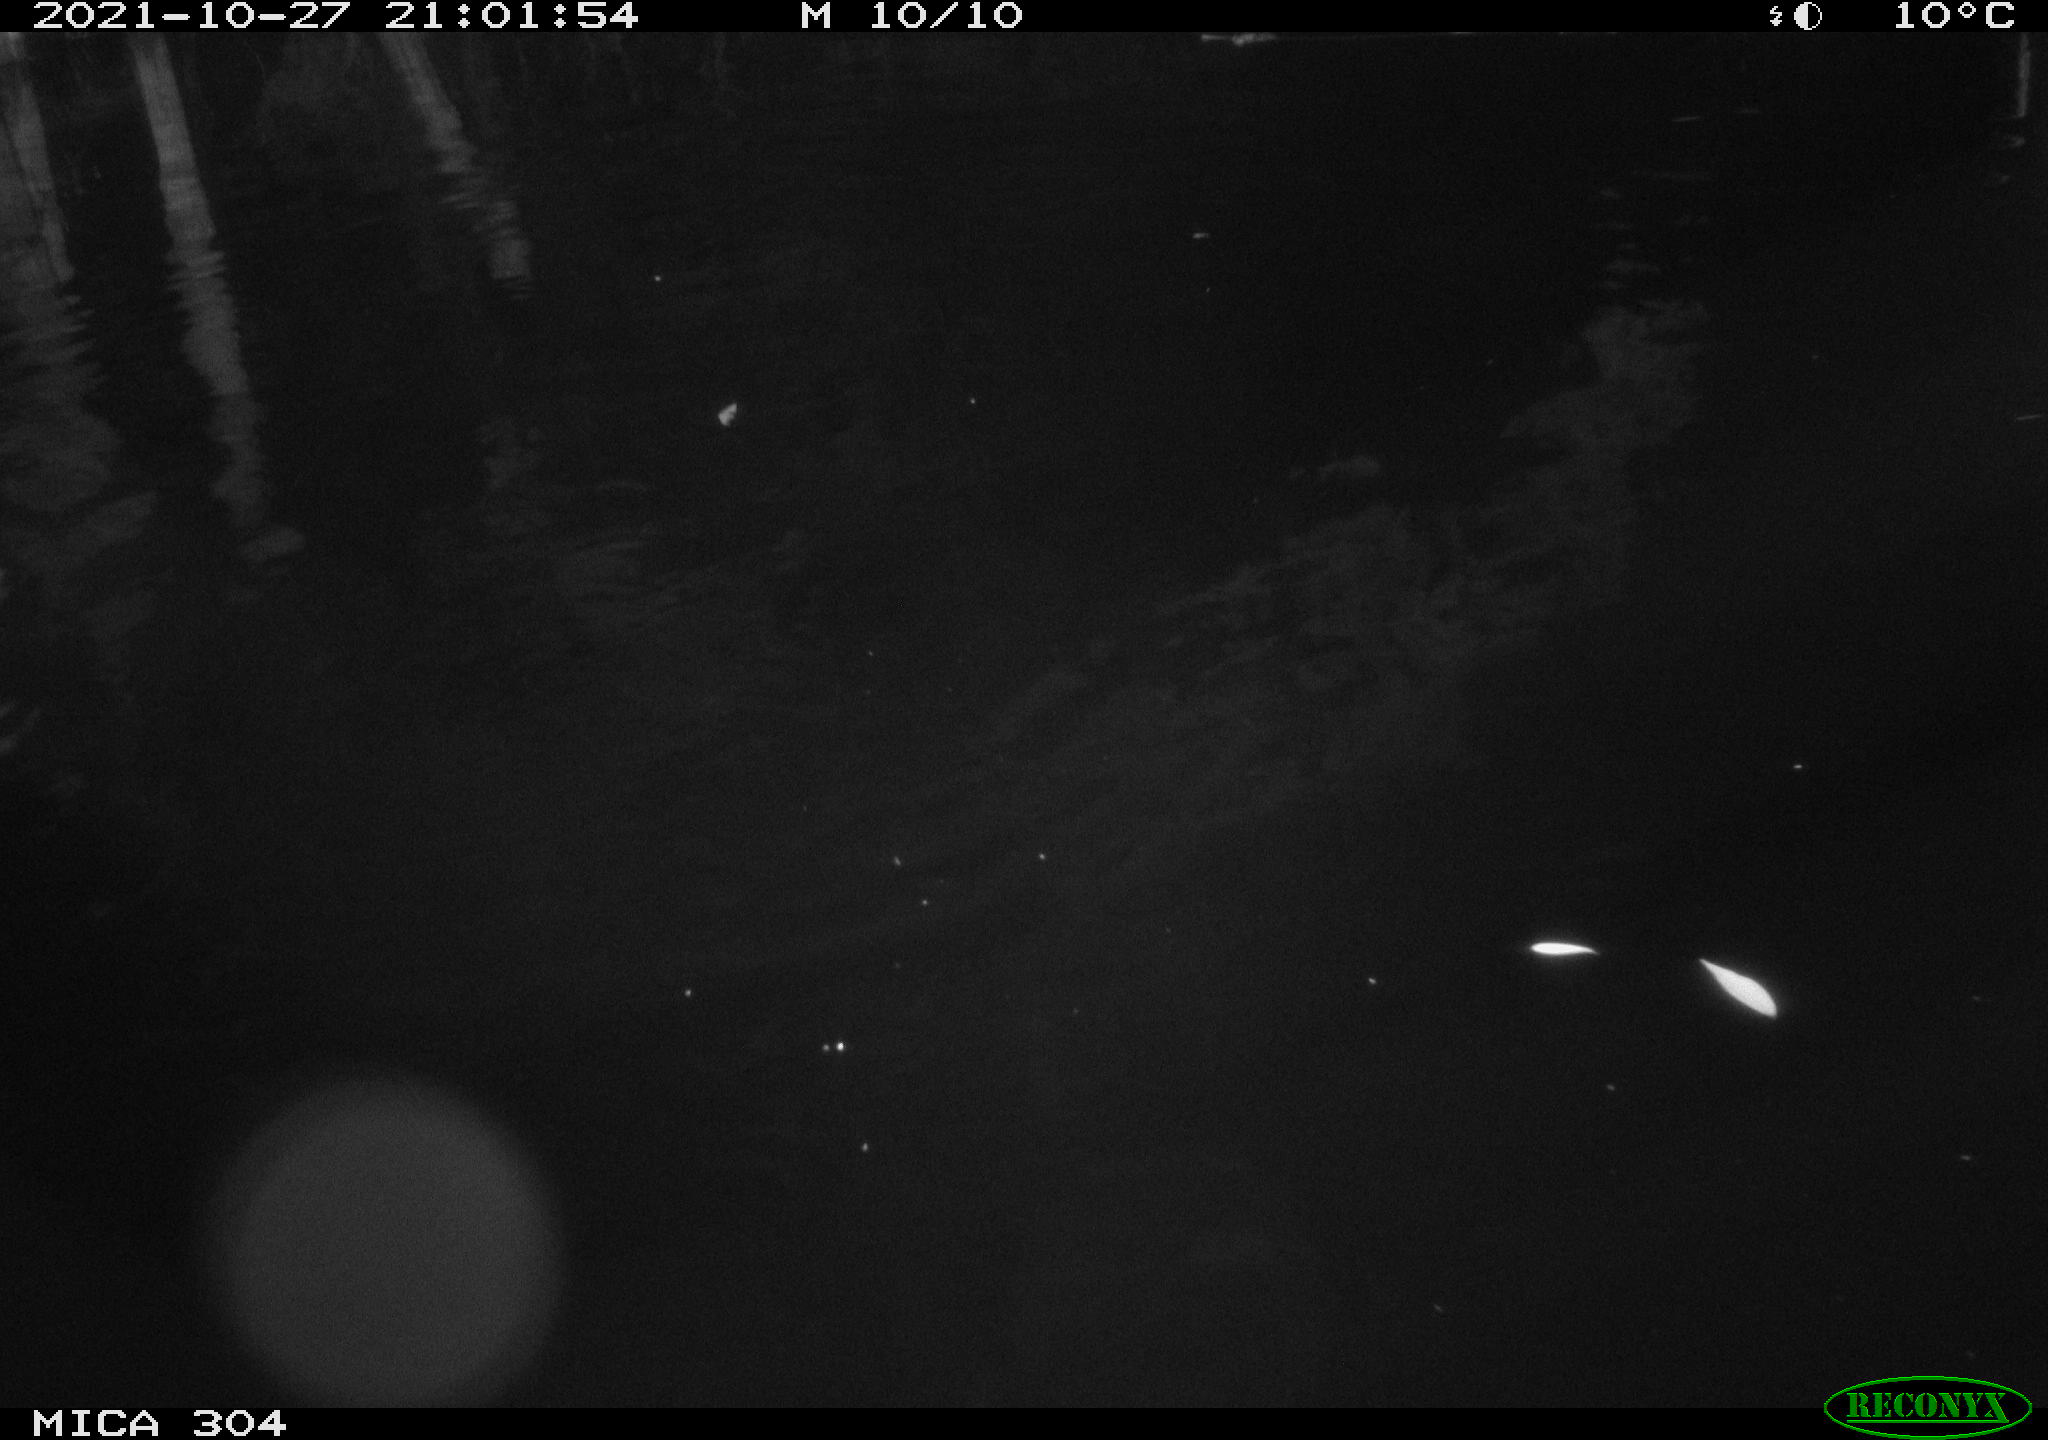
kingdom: Animalia
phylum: Chordata
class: Mammalia
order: Rodentia
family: Muridae
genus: Rattus
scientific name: Rattus norvegicus
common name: Brown rat
